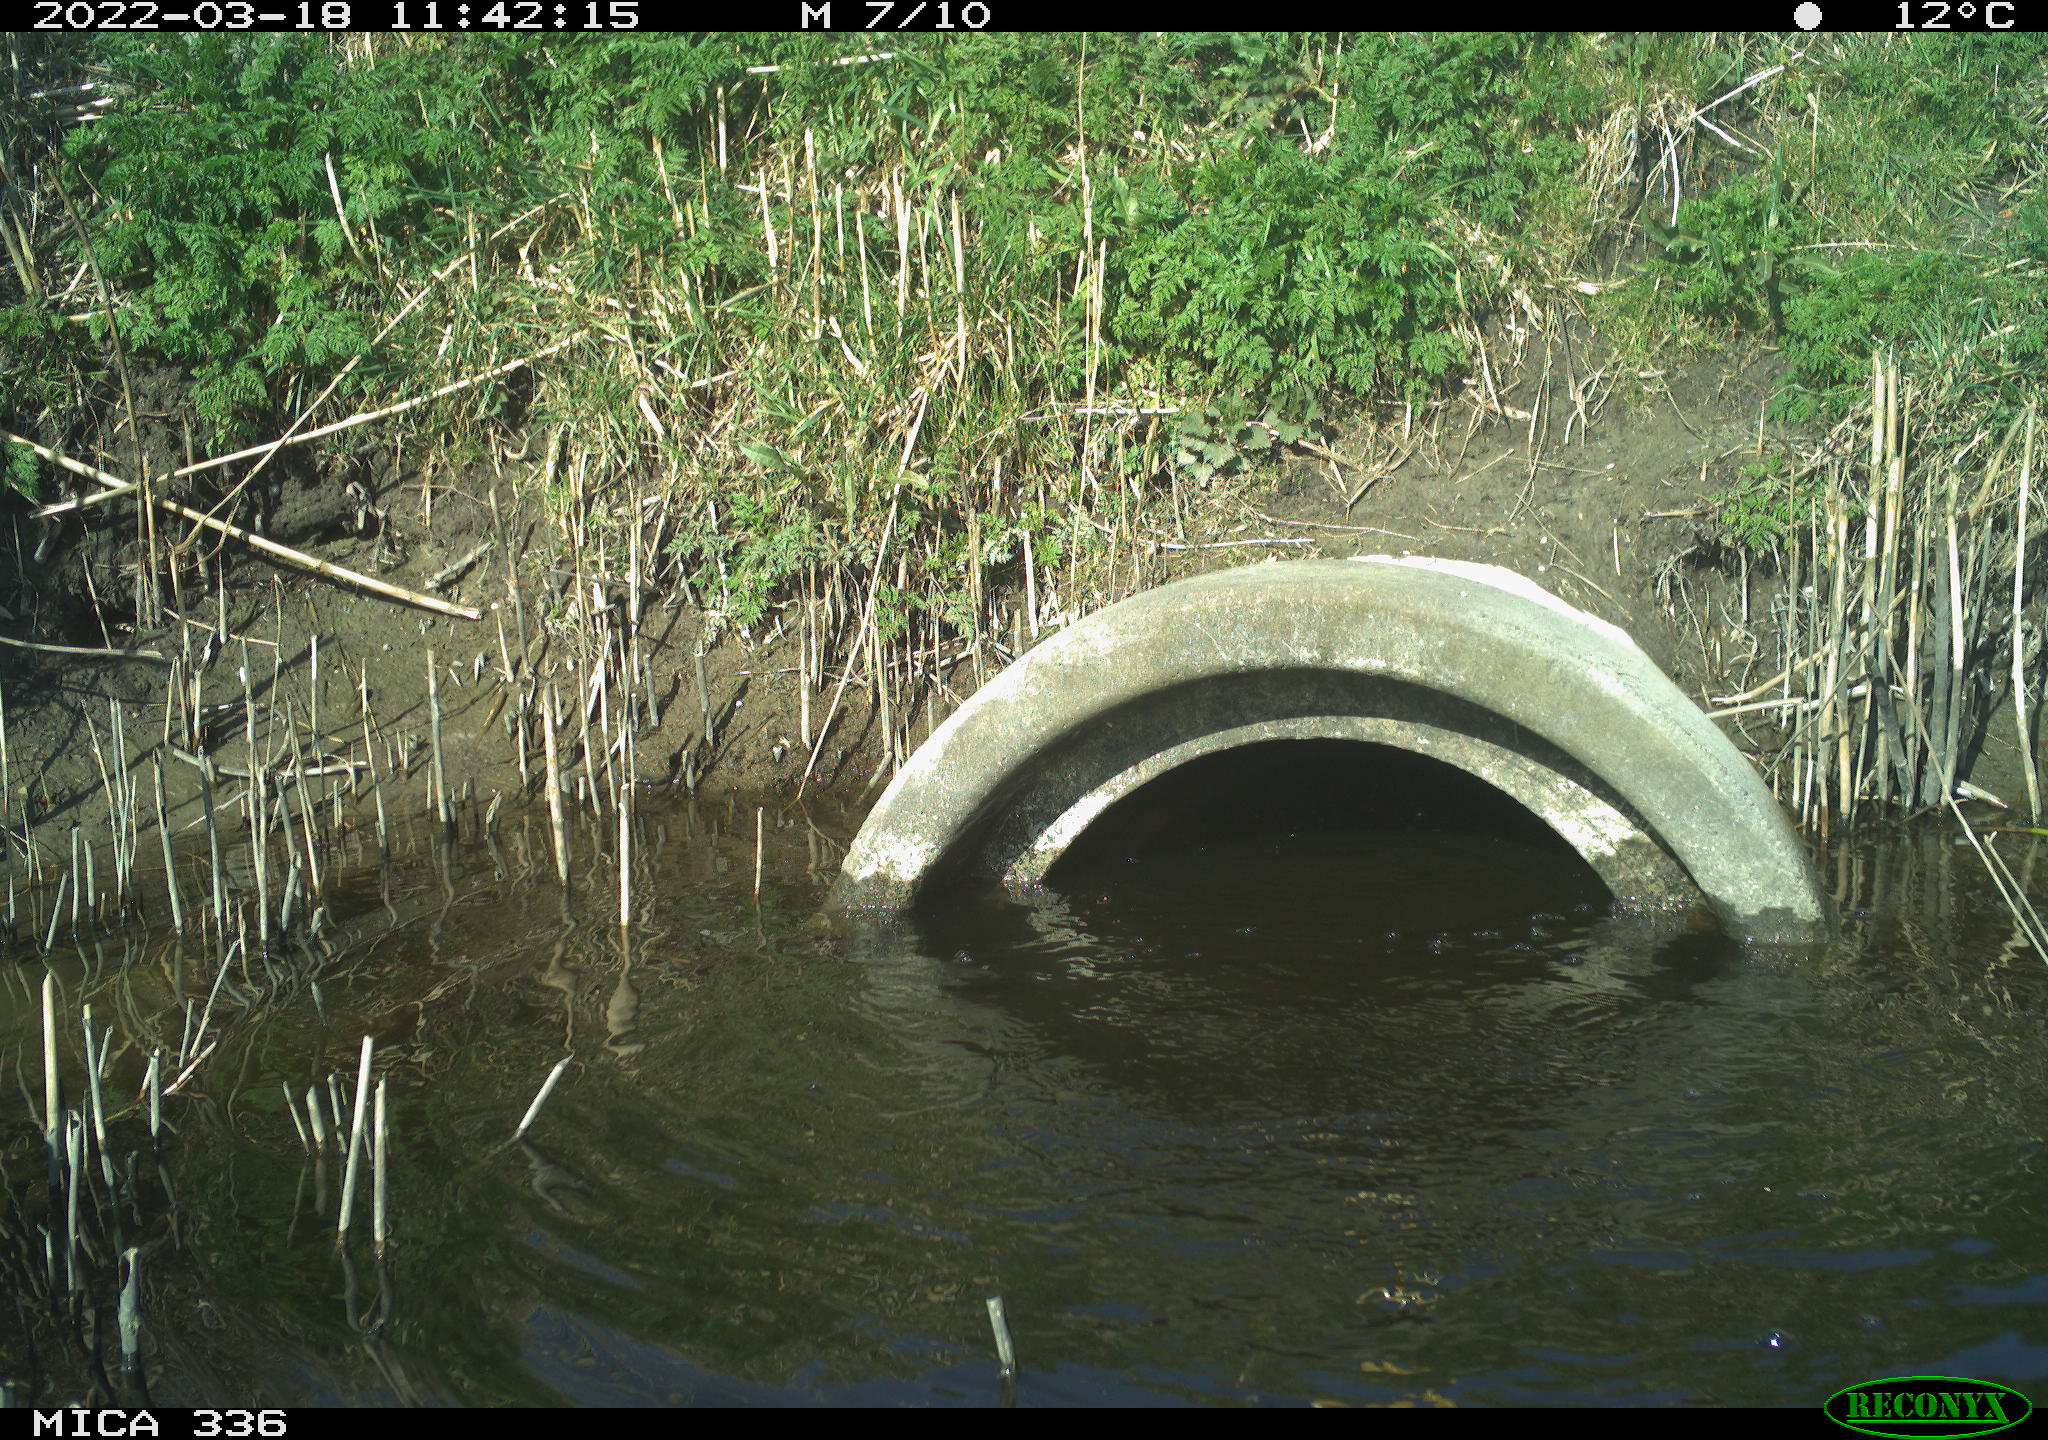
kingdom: Animalia
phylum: Chordata
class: Aves
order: Suliformes
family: Phalacrocoracidae
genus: Phalacrocorax
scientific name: Phalacrocorax carbo
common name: Great cormorant
